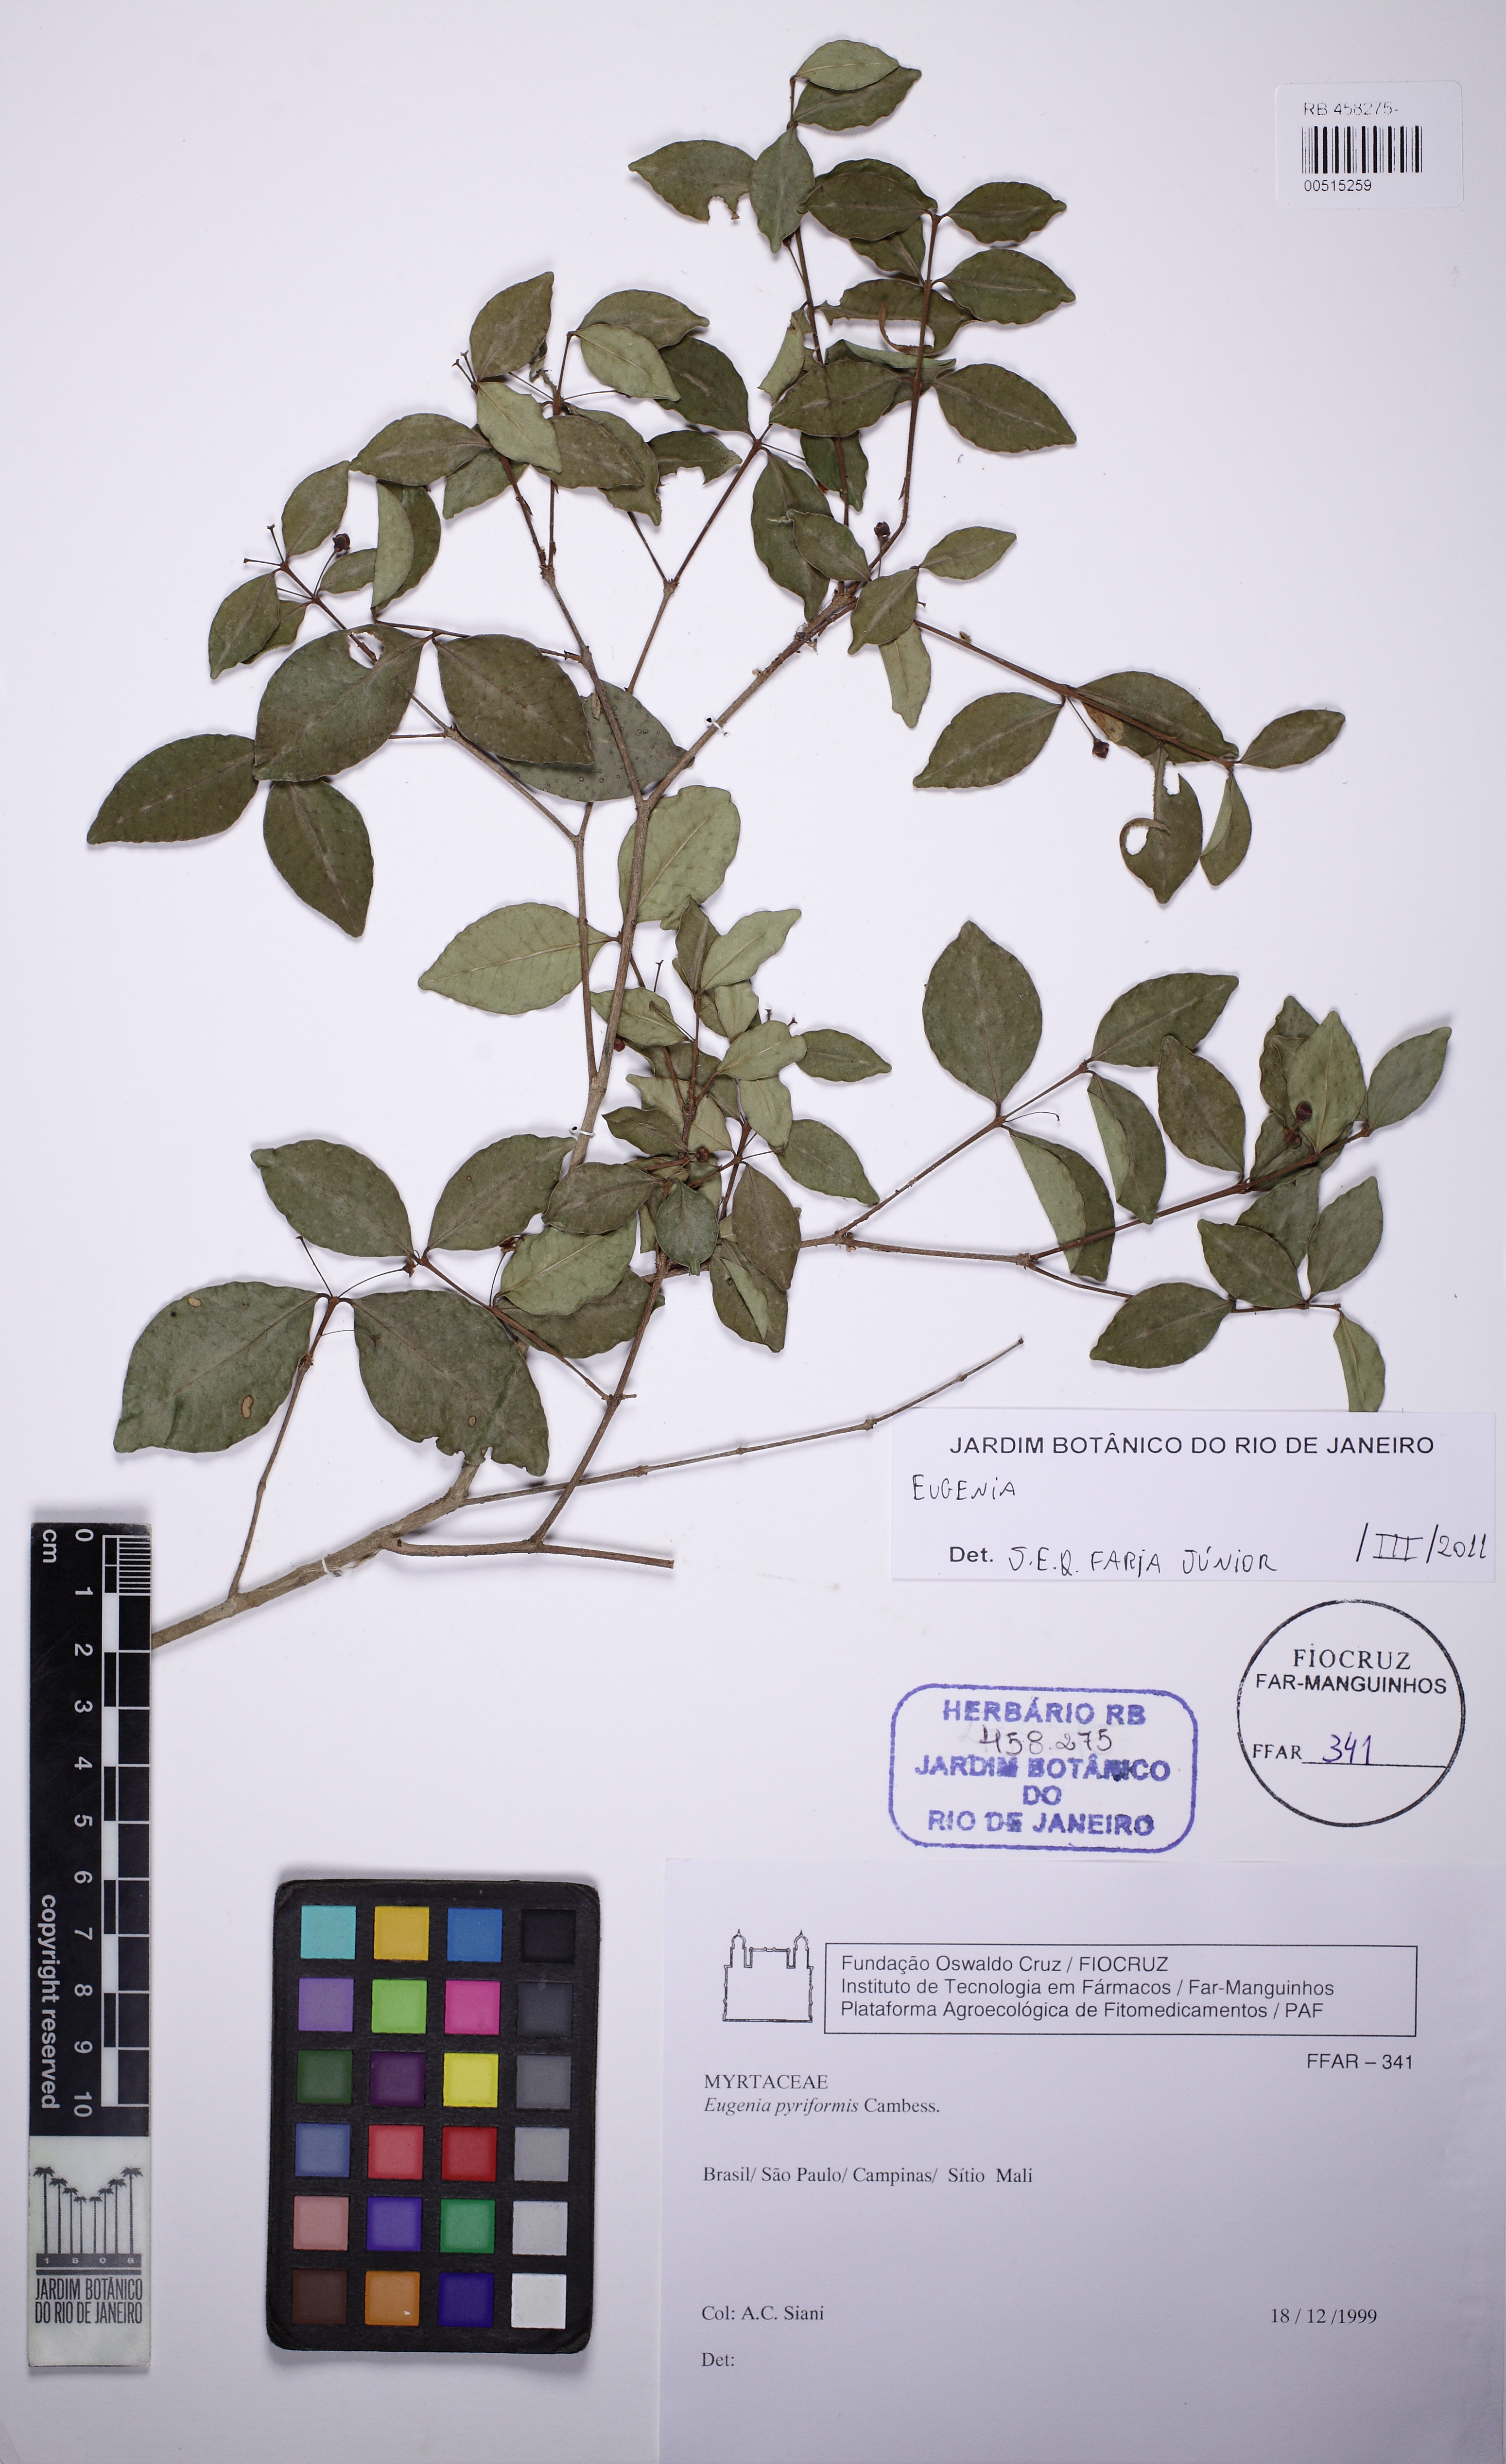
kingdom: Plantae
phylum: Tracheophyta
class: Magnoliopsida
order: Myrtales
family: Myrtaceae
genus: Eugenia
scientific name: Eugenia mansoi
